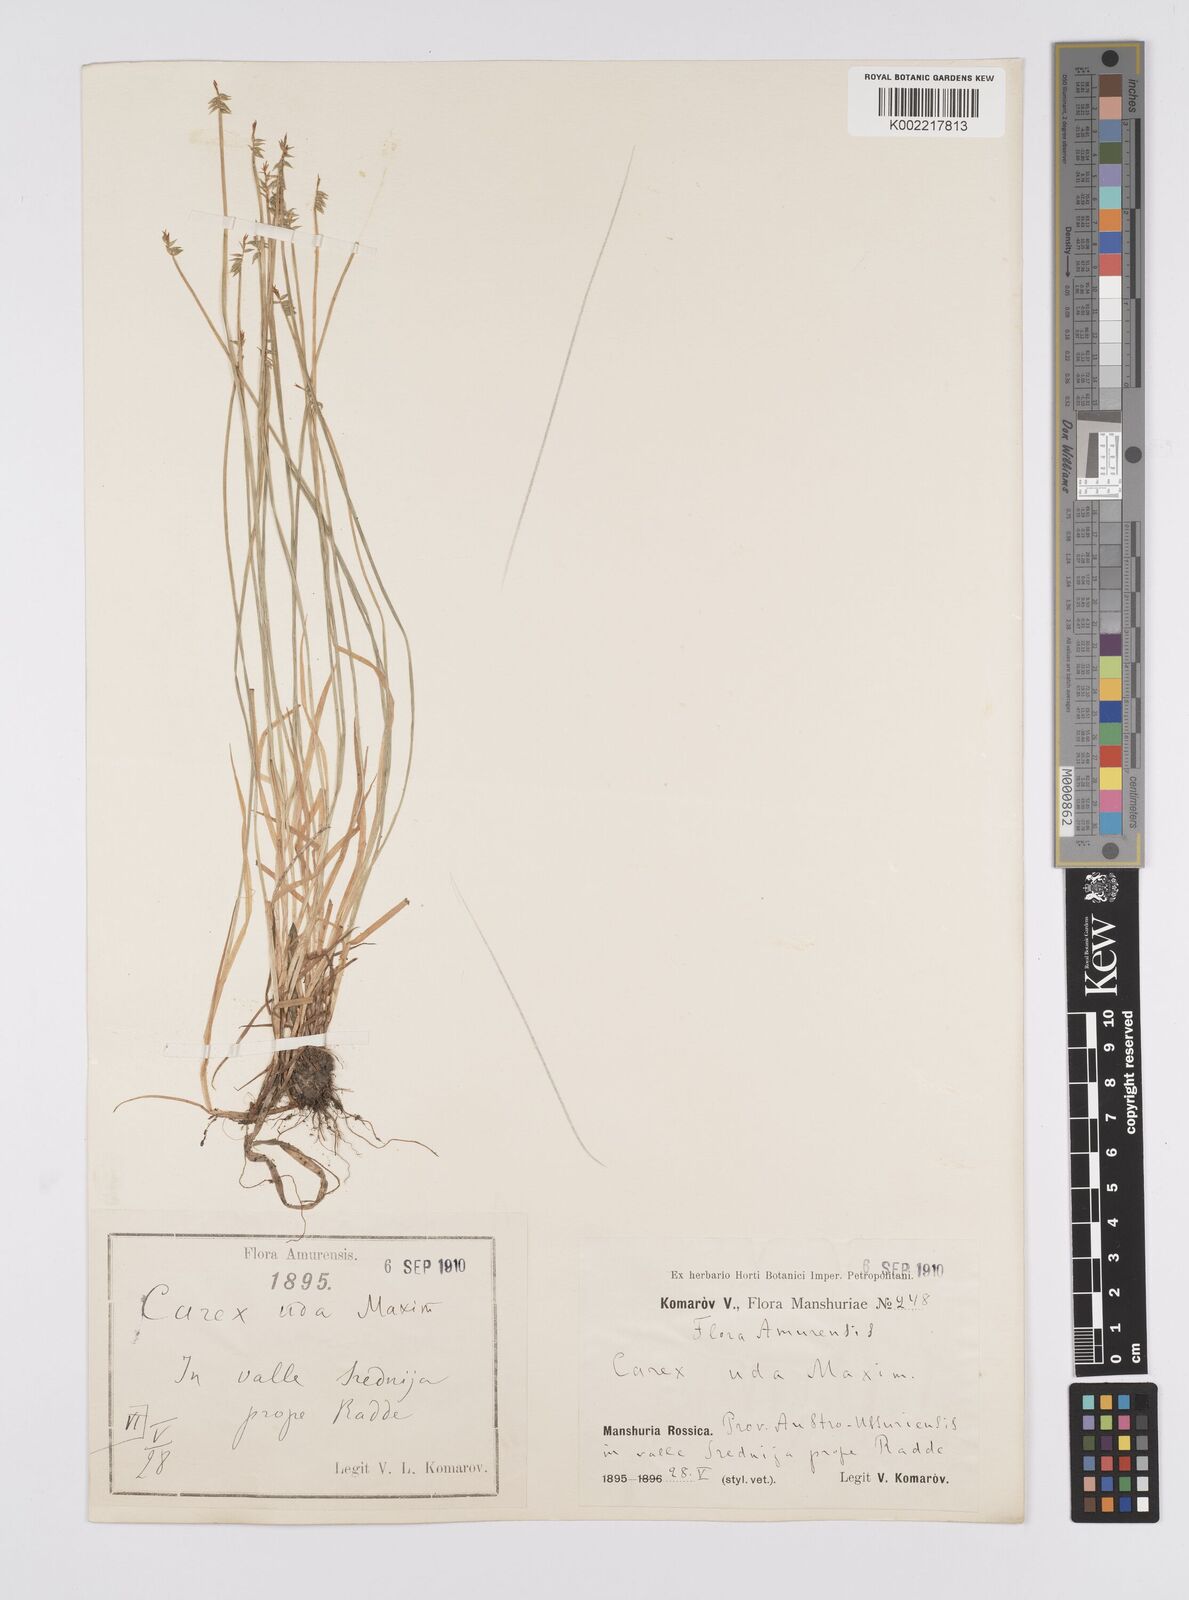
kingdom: Plantae
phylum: Tracheophyta
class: Liliopsida
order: Poales
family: Cyperaceae
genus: Carex
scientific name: Carex uda
